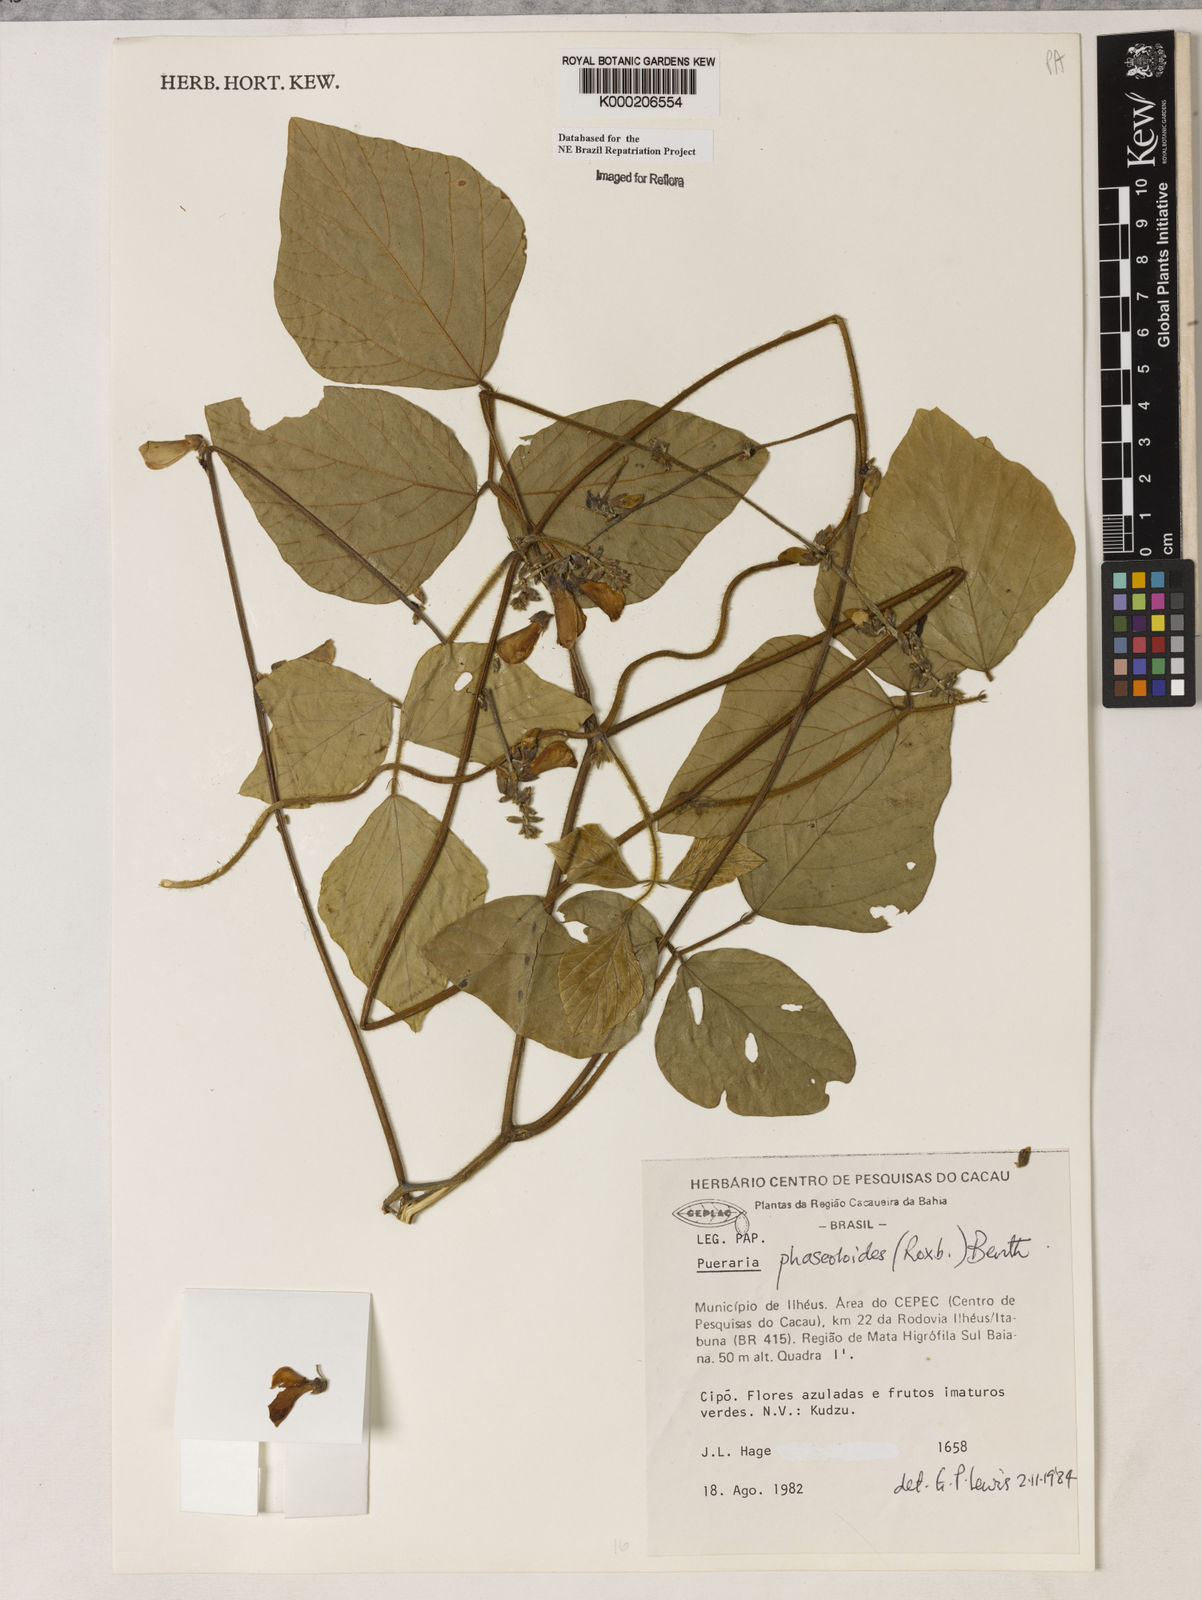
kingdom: Plantae
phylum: Tracheophyta
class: Magnoliopsida
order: Fabales
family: Fabaceae
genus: Neustanthus
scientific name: Neustanthus phaseoloides
